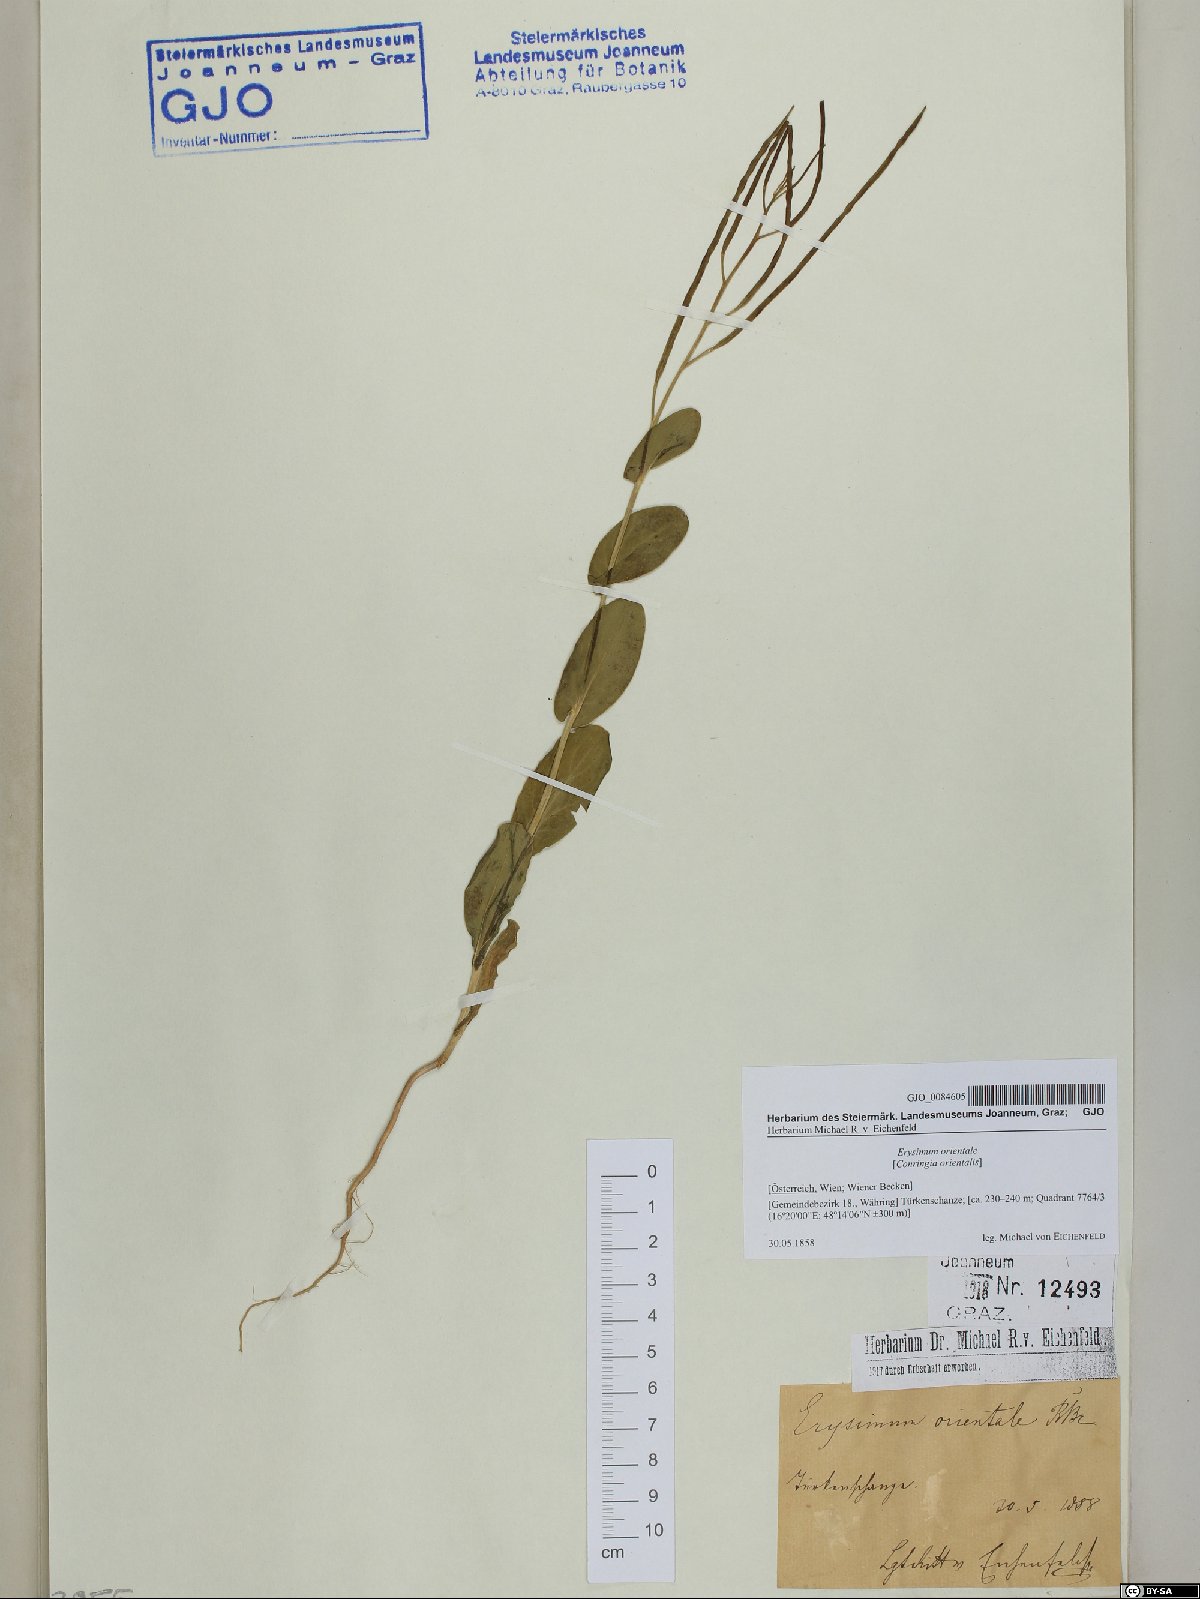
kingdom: Plantae
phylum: Tracheophyta
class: Magnoliopsida
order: Brassicales
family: Brassicaceae
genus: Conringia
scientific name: Conringia orientalis
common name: Hare's ear mustard
